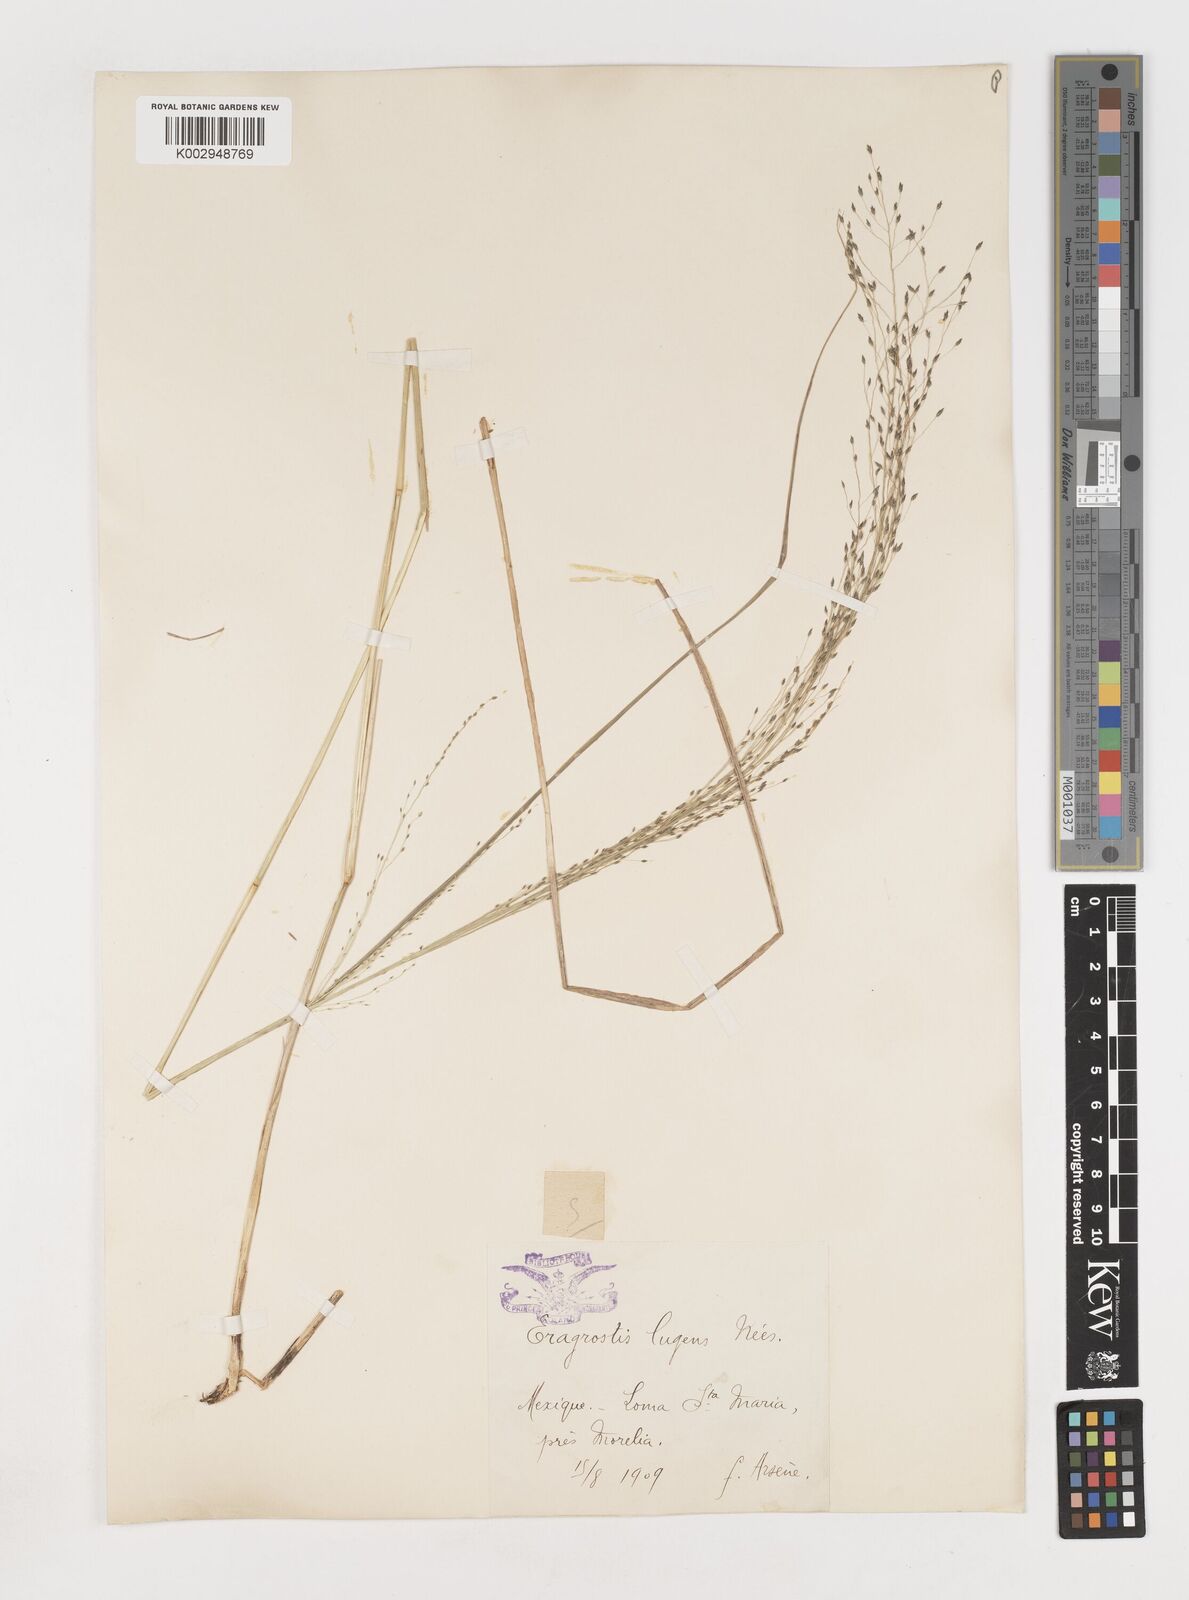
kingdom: Plantae
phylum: Tracheophyta
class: Liliopsida
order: Poales
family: Poaceae
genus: Eragrostis
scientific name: Eragrostis
